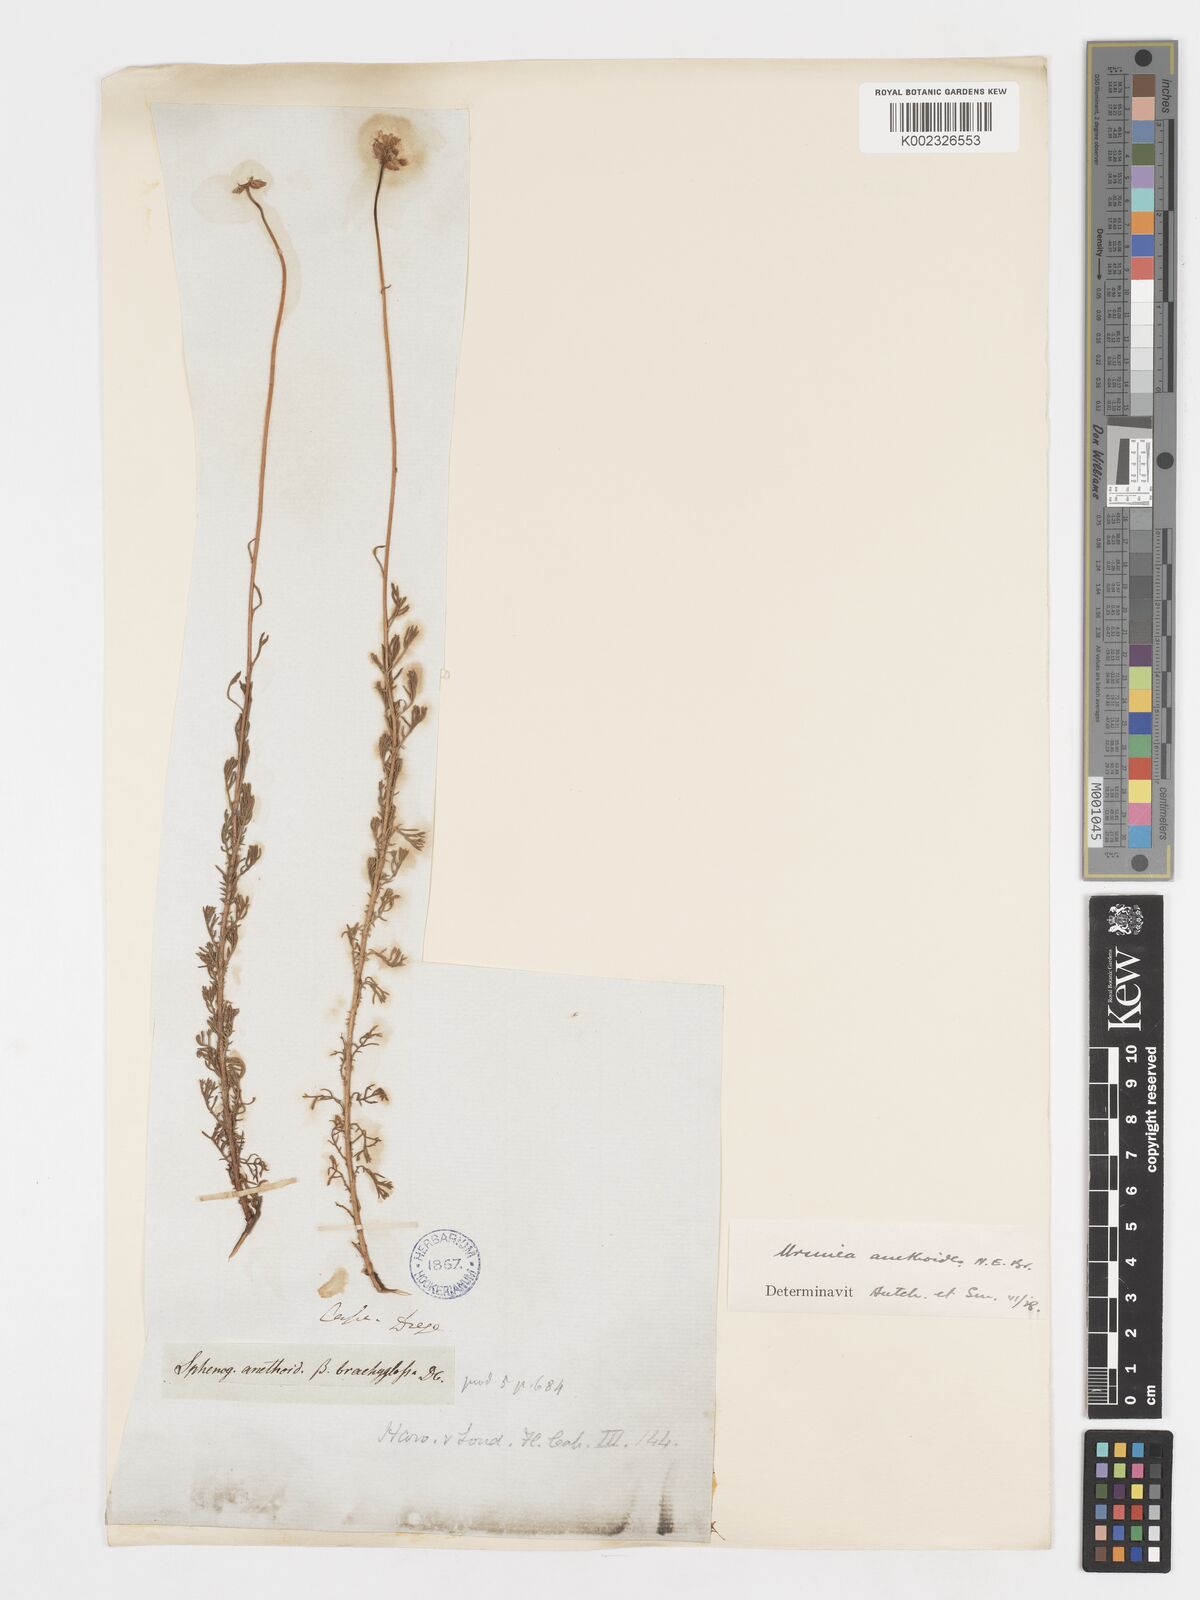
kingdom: Plantae
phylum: Tracheophyta
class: Magnoliopsida
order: Asterales
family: Asteraceae
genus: Ursinia
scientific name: Ursinia anethoides
